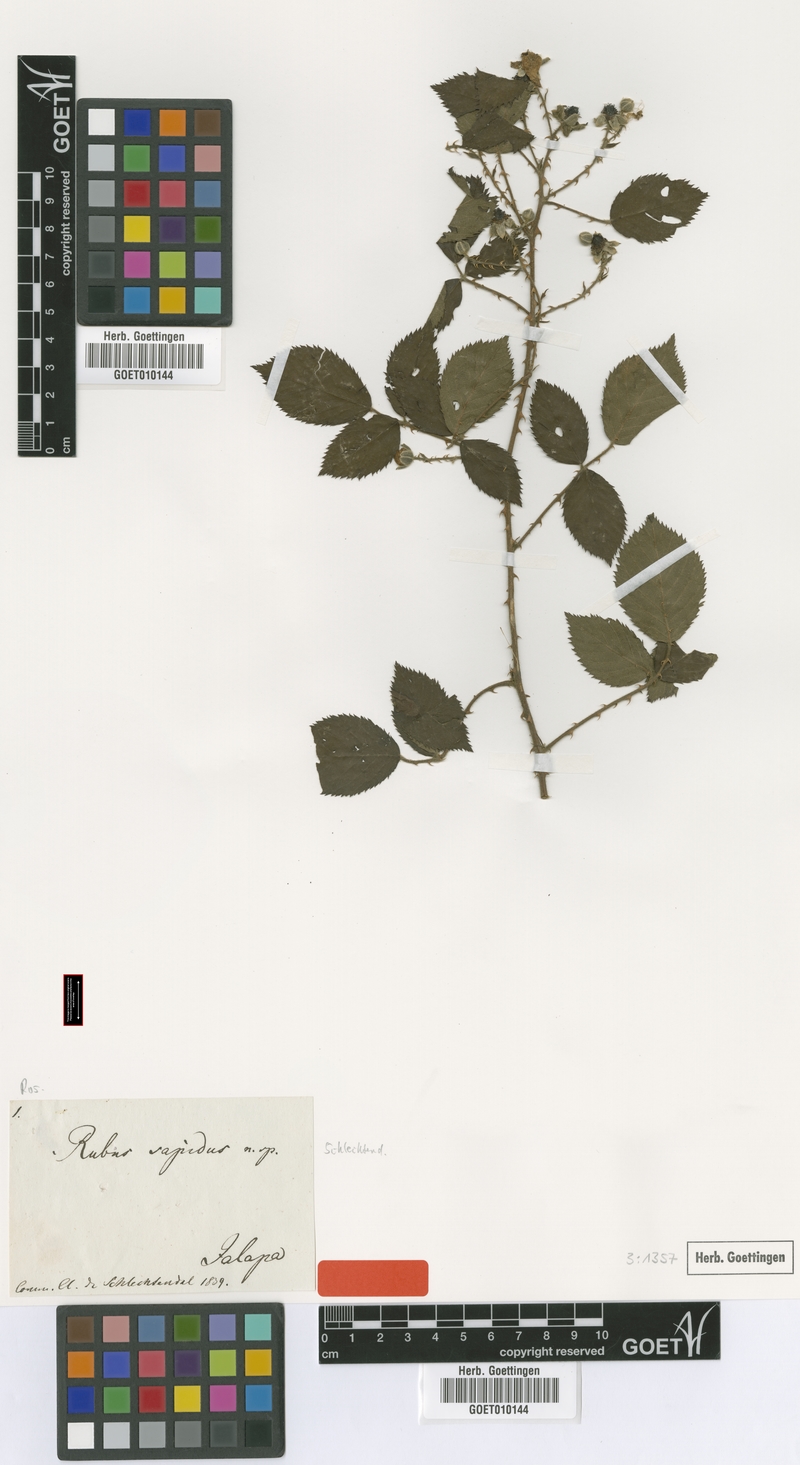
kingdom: Plantae
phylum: Tracheophyta
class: Magnoliopsida
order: Rosales
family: Rosaceae
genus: Rubus
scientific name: Rubus sapidus
